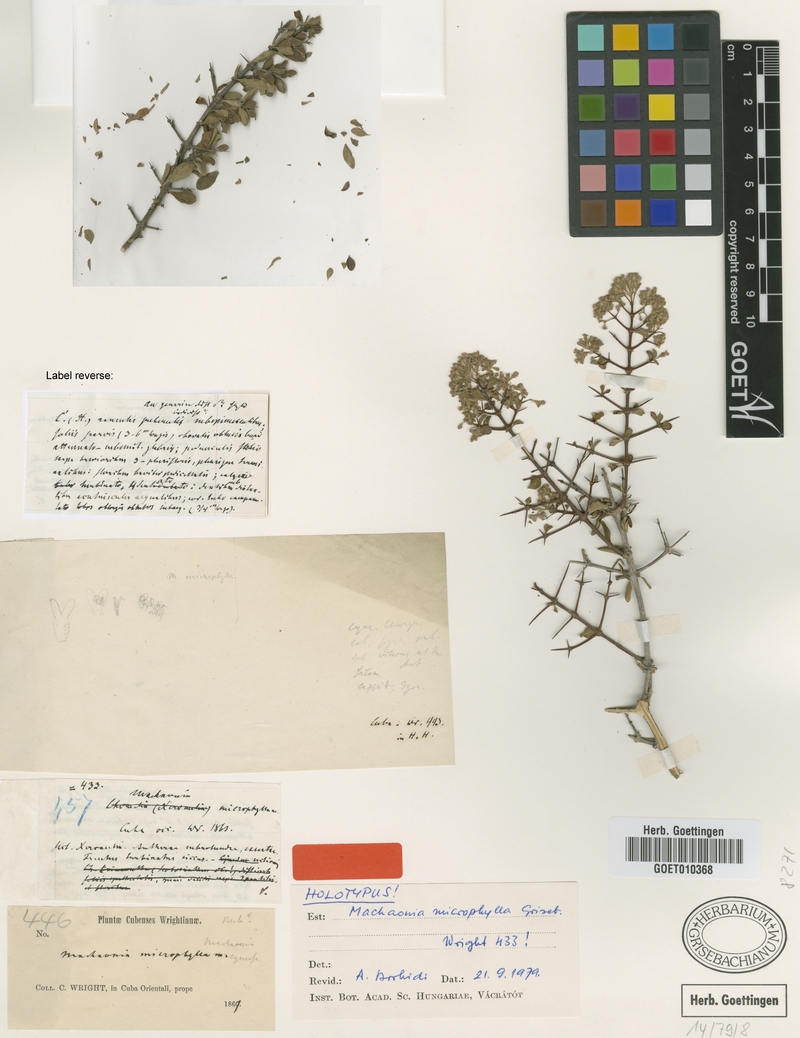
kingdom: Plantae
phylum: Tracheophyta
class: Magnoliopsida
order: Gentianales
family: Rubiaceae
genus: Machaonia
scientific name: Machaonia microphylla
